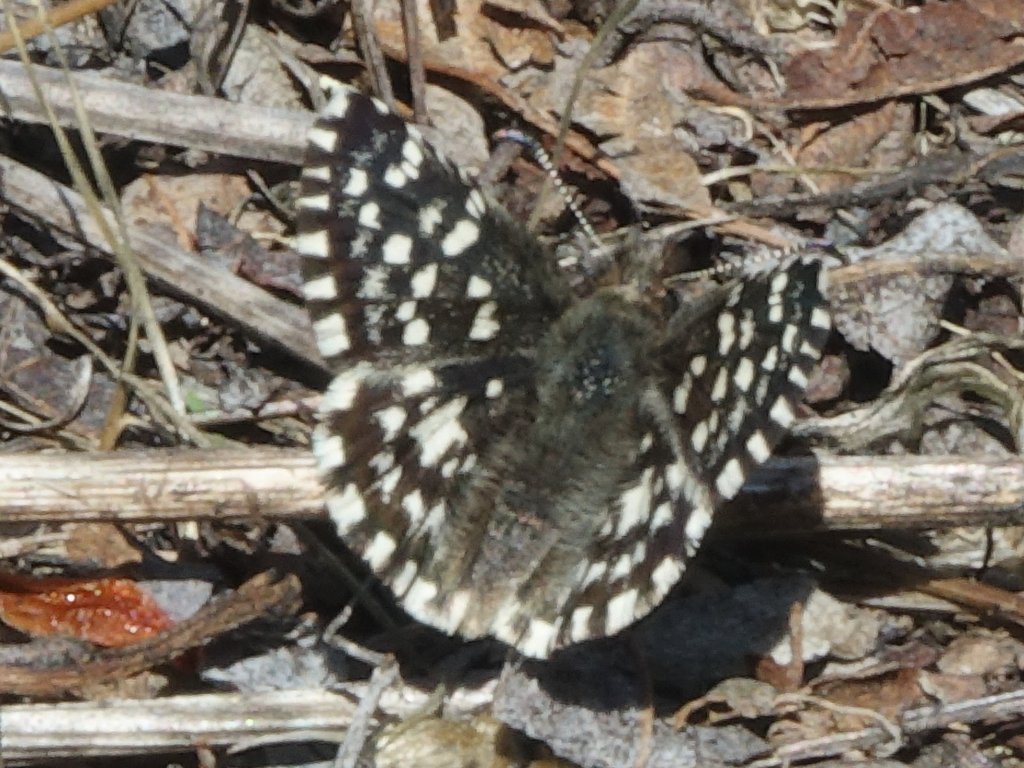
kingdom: Animalia
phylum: Arthropoda
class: Insecta
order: Lepidoptera
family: Hesperiidae
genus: Pyrgus
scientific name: Pyrgus ruralis
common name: Two-banded Checkered-Skipper
